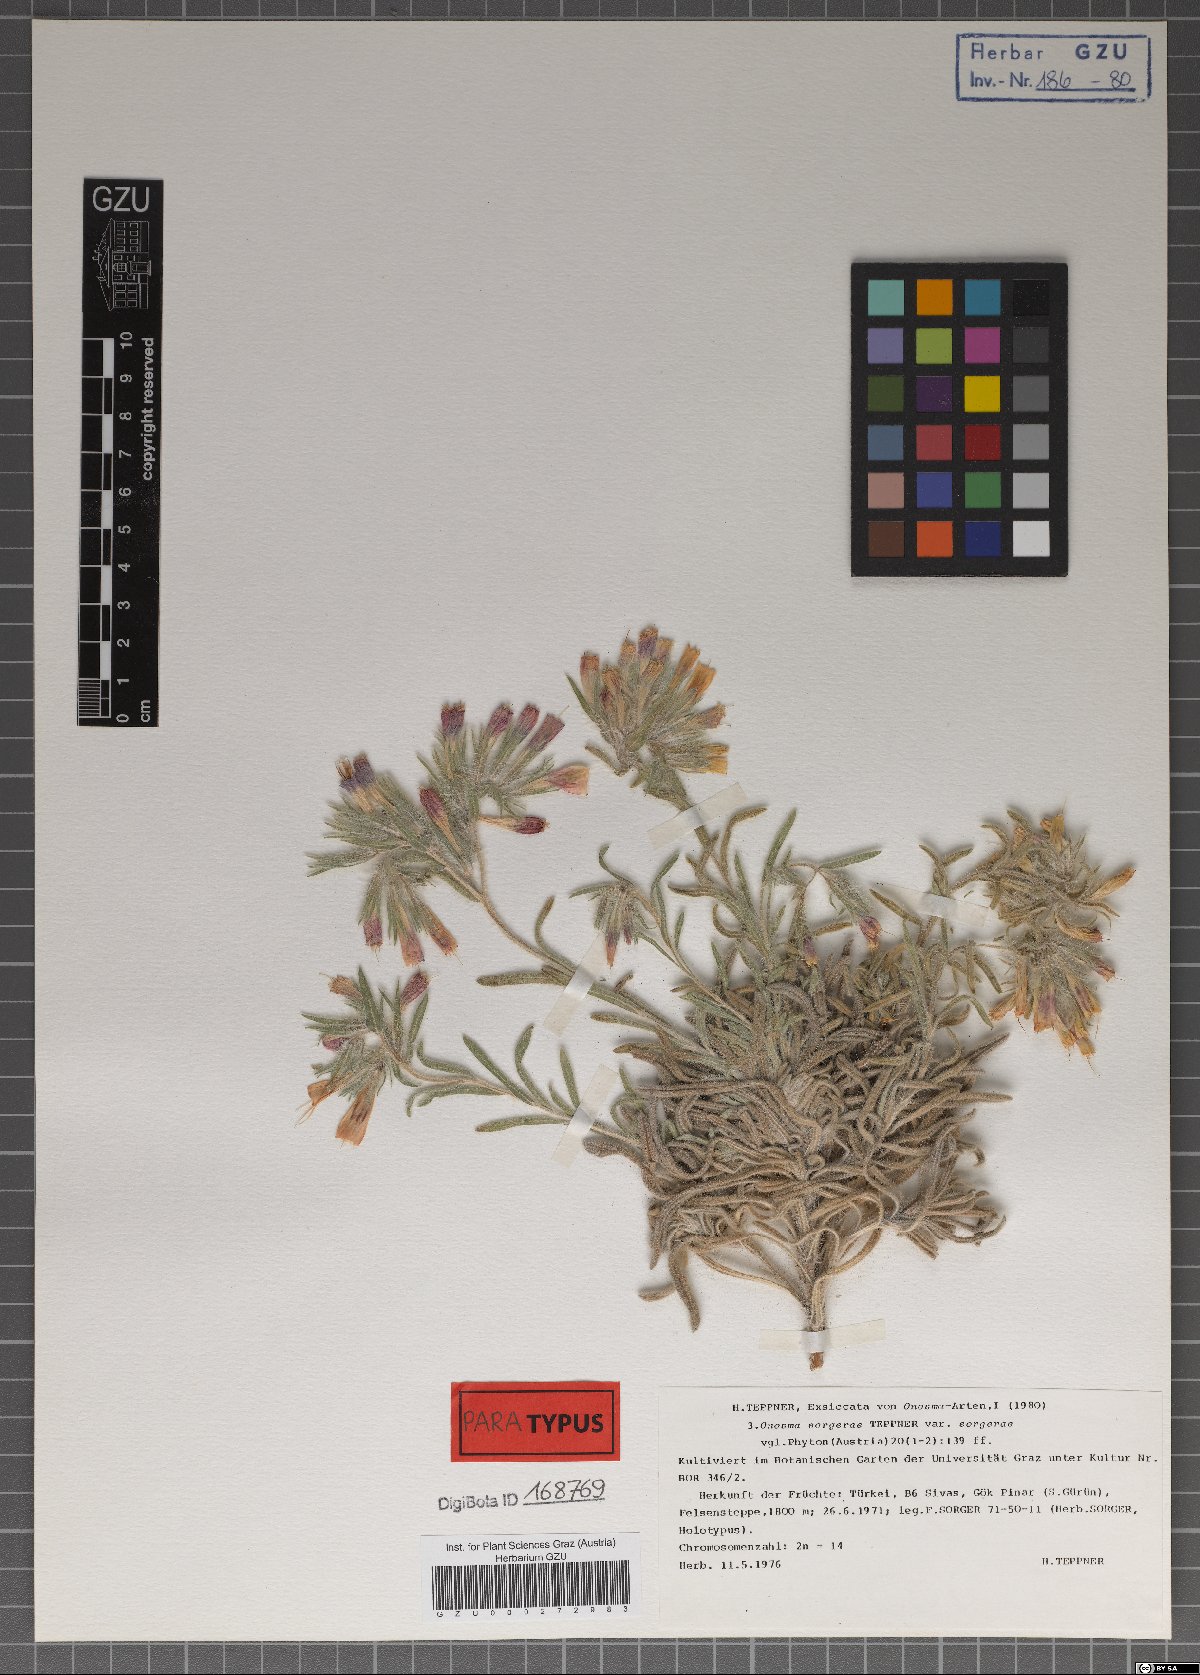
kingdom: Plantae
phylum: Tracheophyta
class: Magnoliopsida
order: Boraginales
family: Boraginaceae
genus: Onosma
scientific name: Onosma sorgerae
